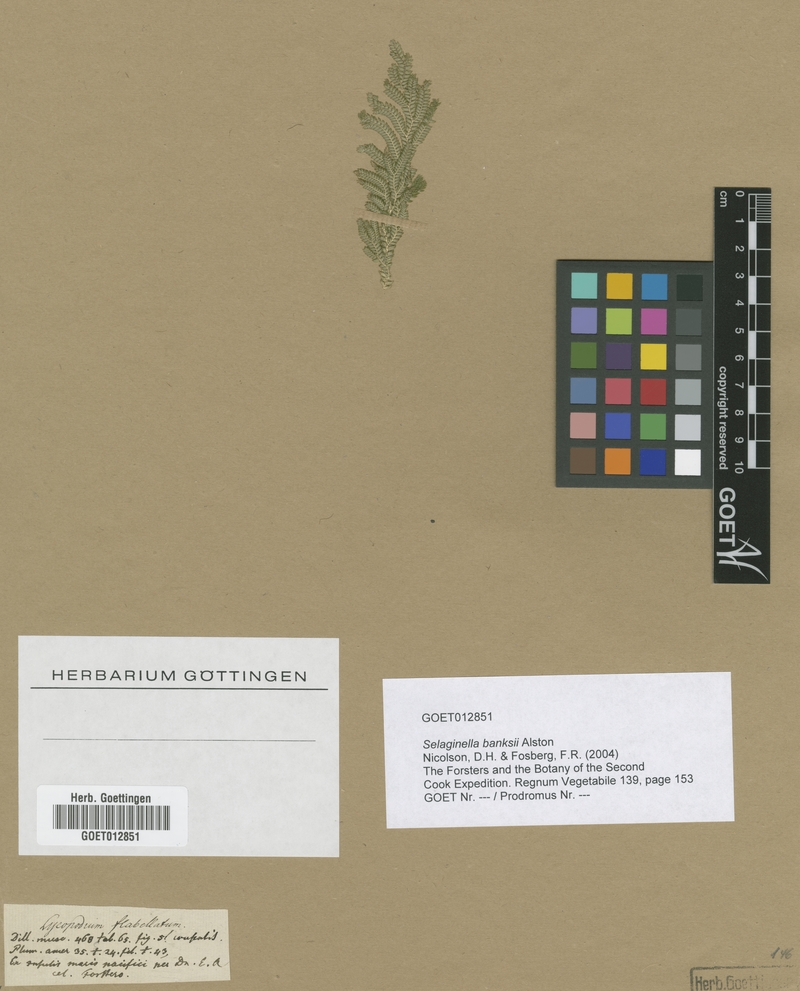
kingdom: Plantae
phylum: Tracheophyta
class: Lycopodiopsida
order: Selaginellales
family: Selaginellaceae
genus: Selaginella
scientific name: Selaginella banksii
